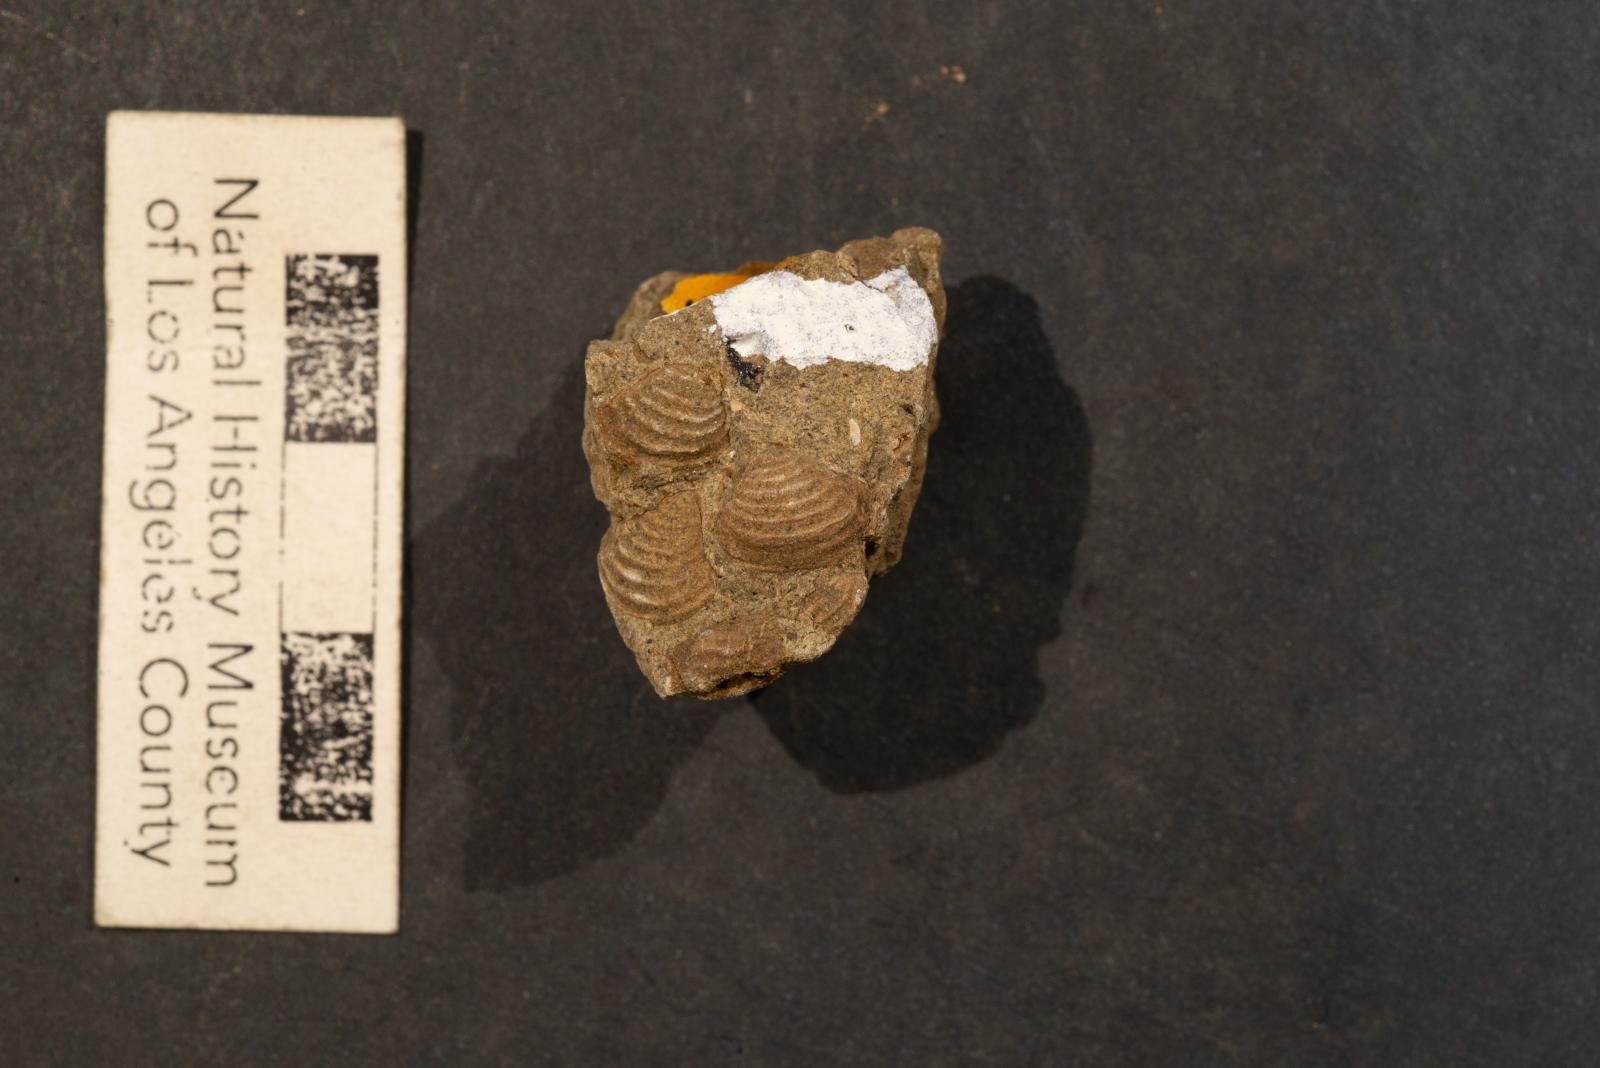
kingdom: Animalia
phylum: Mollusca
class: Bivalvia
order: Venerida
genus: Alleinacin
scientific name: Alleinacin
